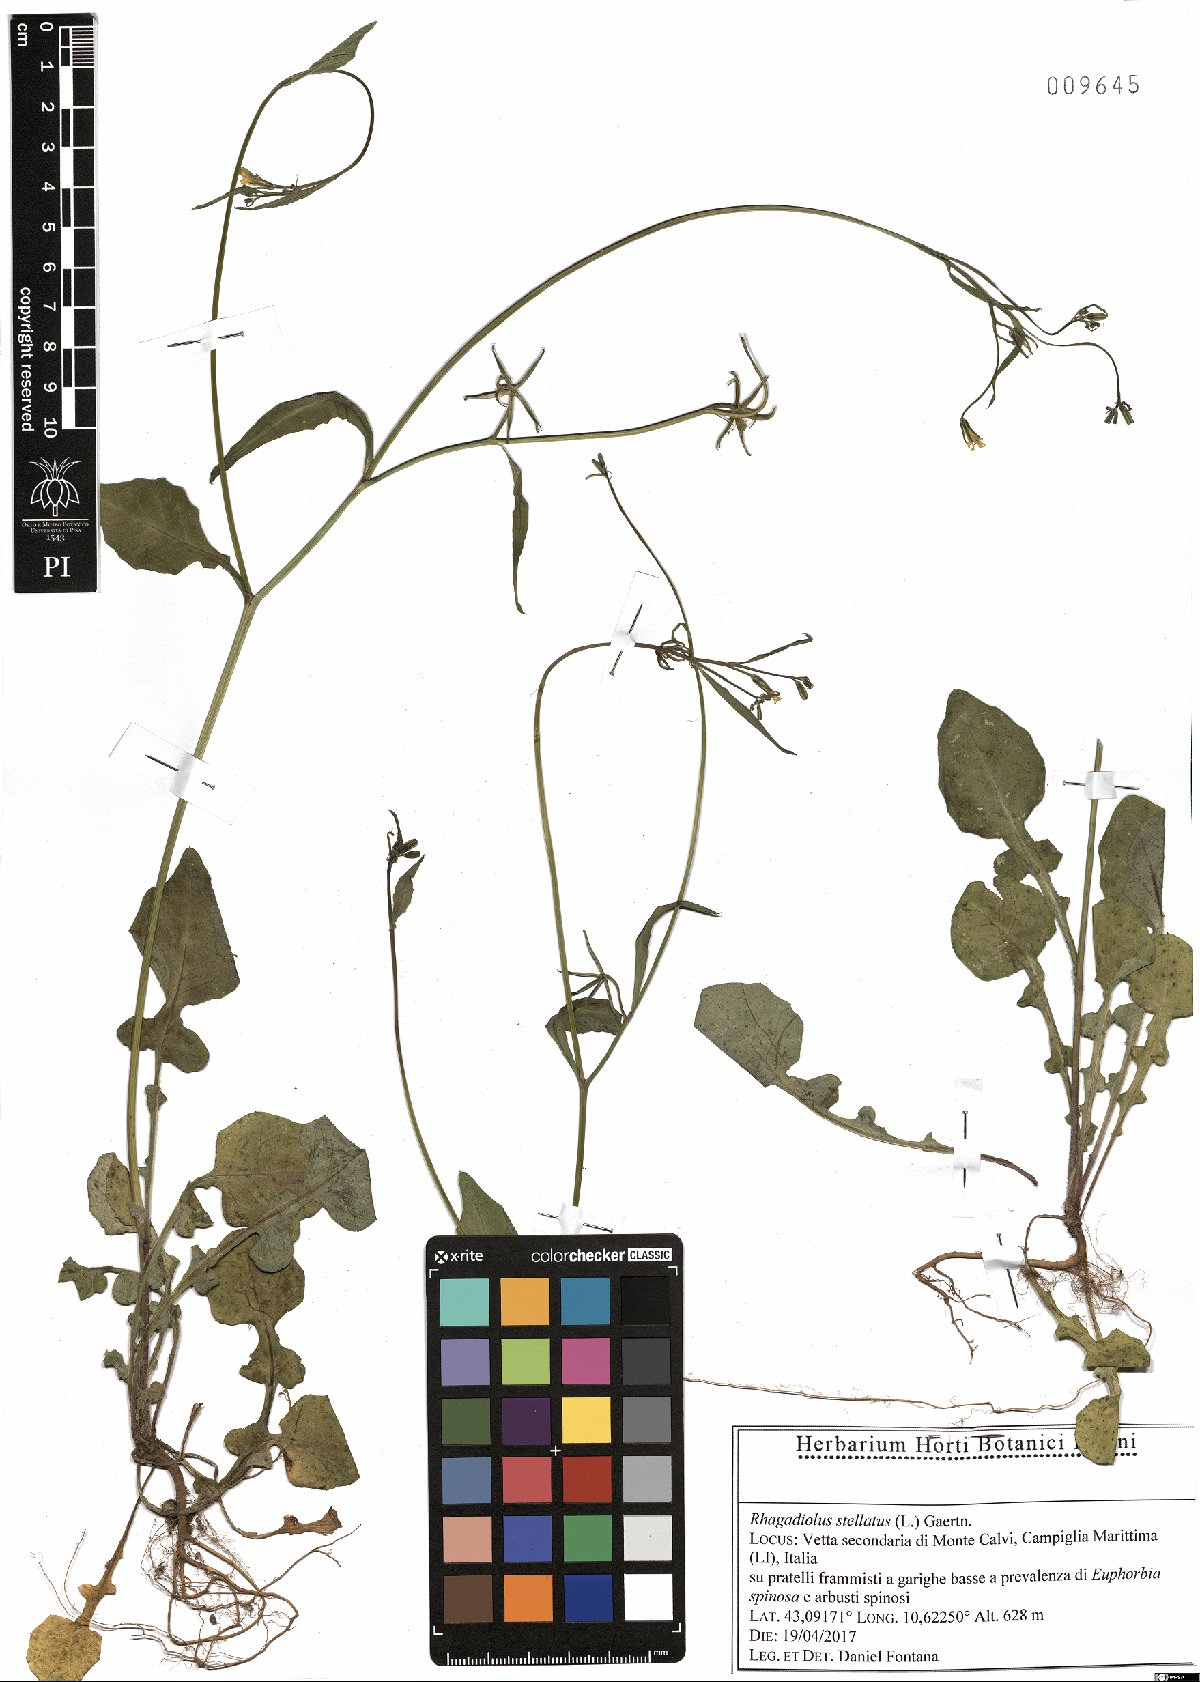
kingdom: Plantae
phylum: Tracheophyta
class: Magnoliopsida
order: Asterales
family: Asteraceae
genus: Rhagadiolus
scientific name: Rhagadiolus stellatus
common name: Star hawkbit
